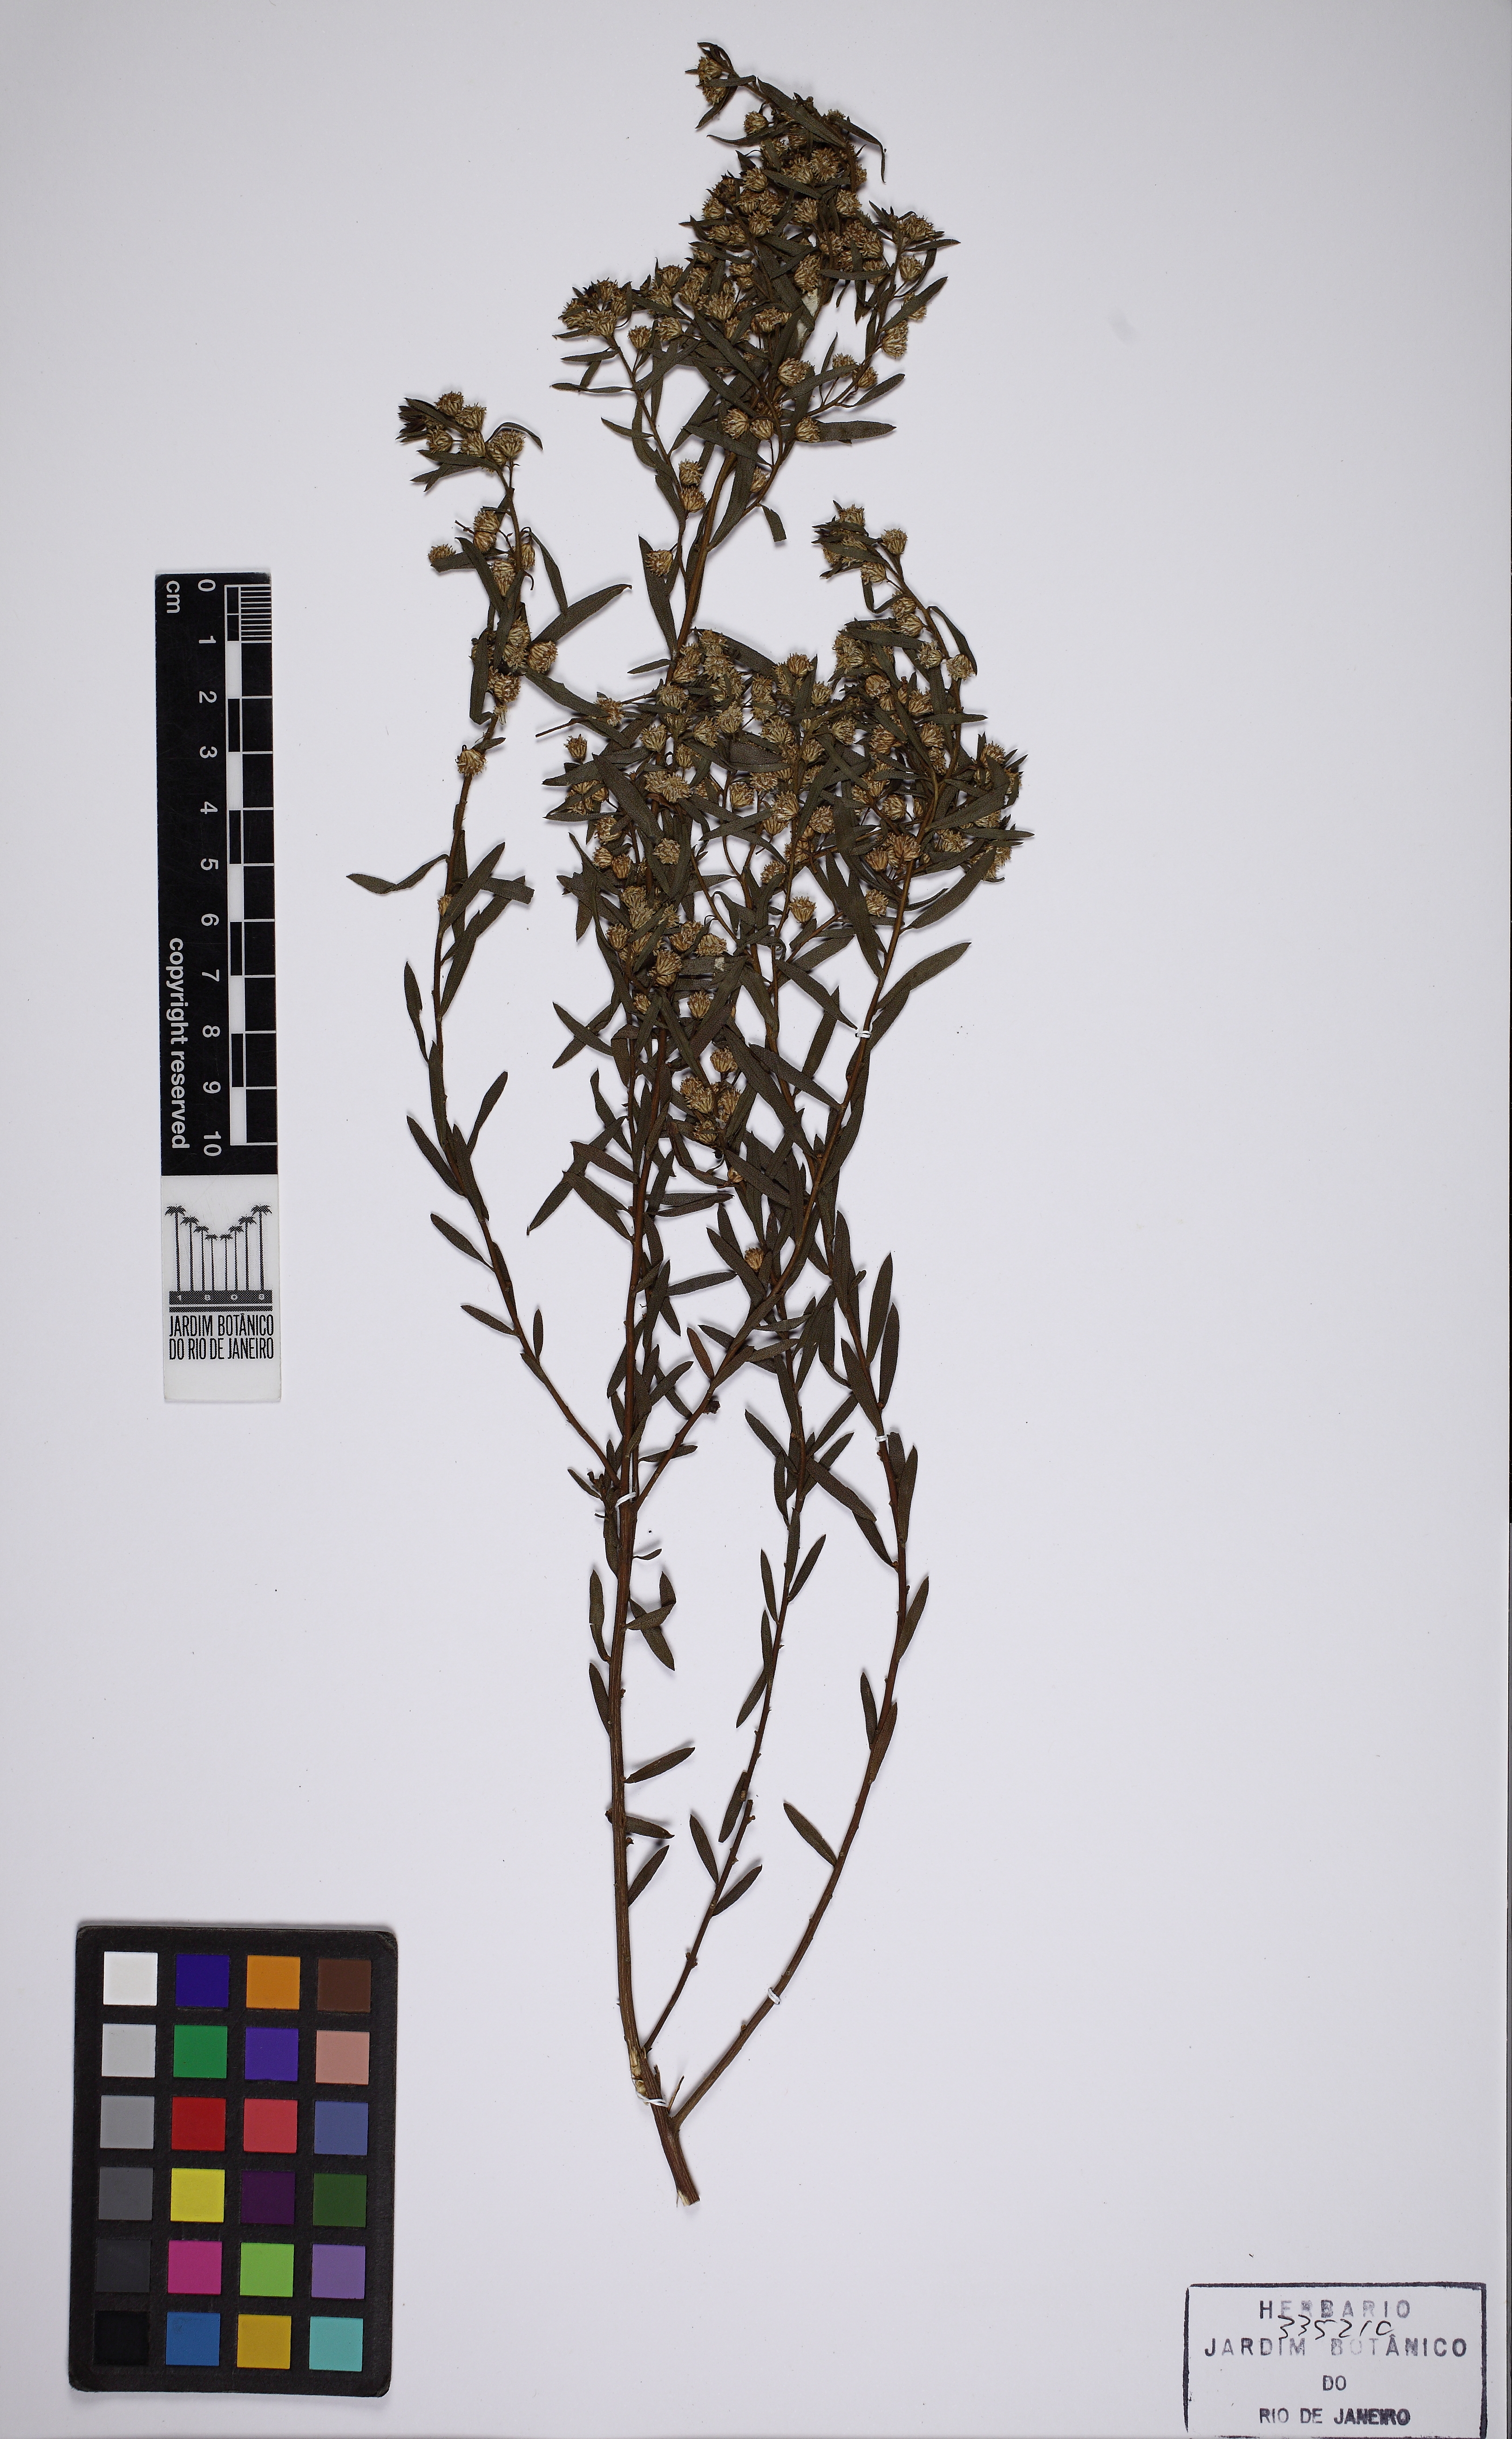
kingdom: Plantae
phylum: Tracheophyta
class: Magnoliopsida
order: Asterales
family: Asteraceae
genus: Baccharis
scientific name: Baccharis dracunculifolia
